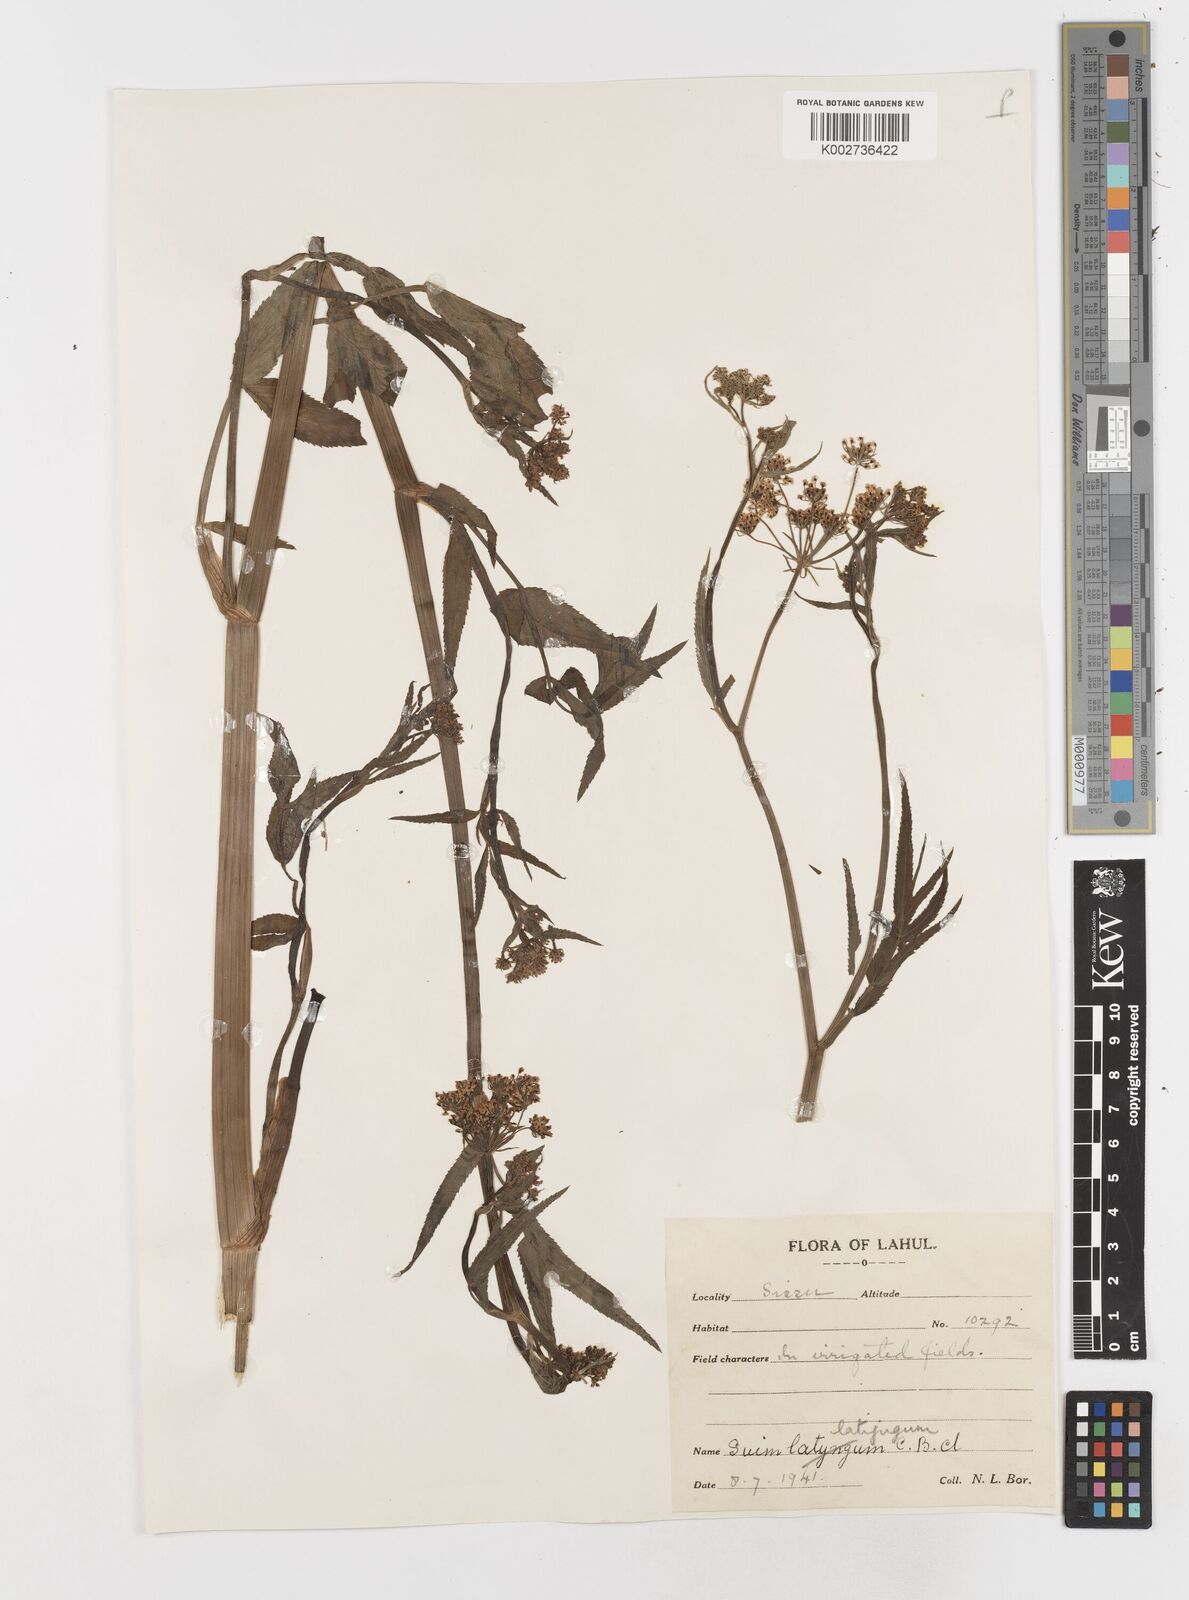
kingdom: Plantae
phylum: Tracheophyta
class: Magnoliopsida
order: Apiales
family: Apiaceae
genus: Sium
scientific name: Sium sisarum
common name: Skirret
